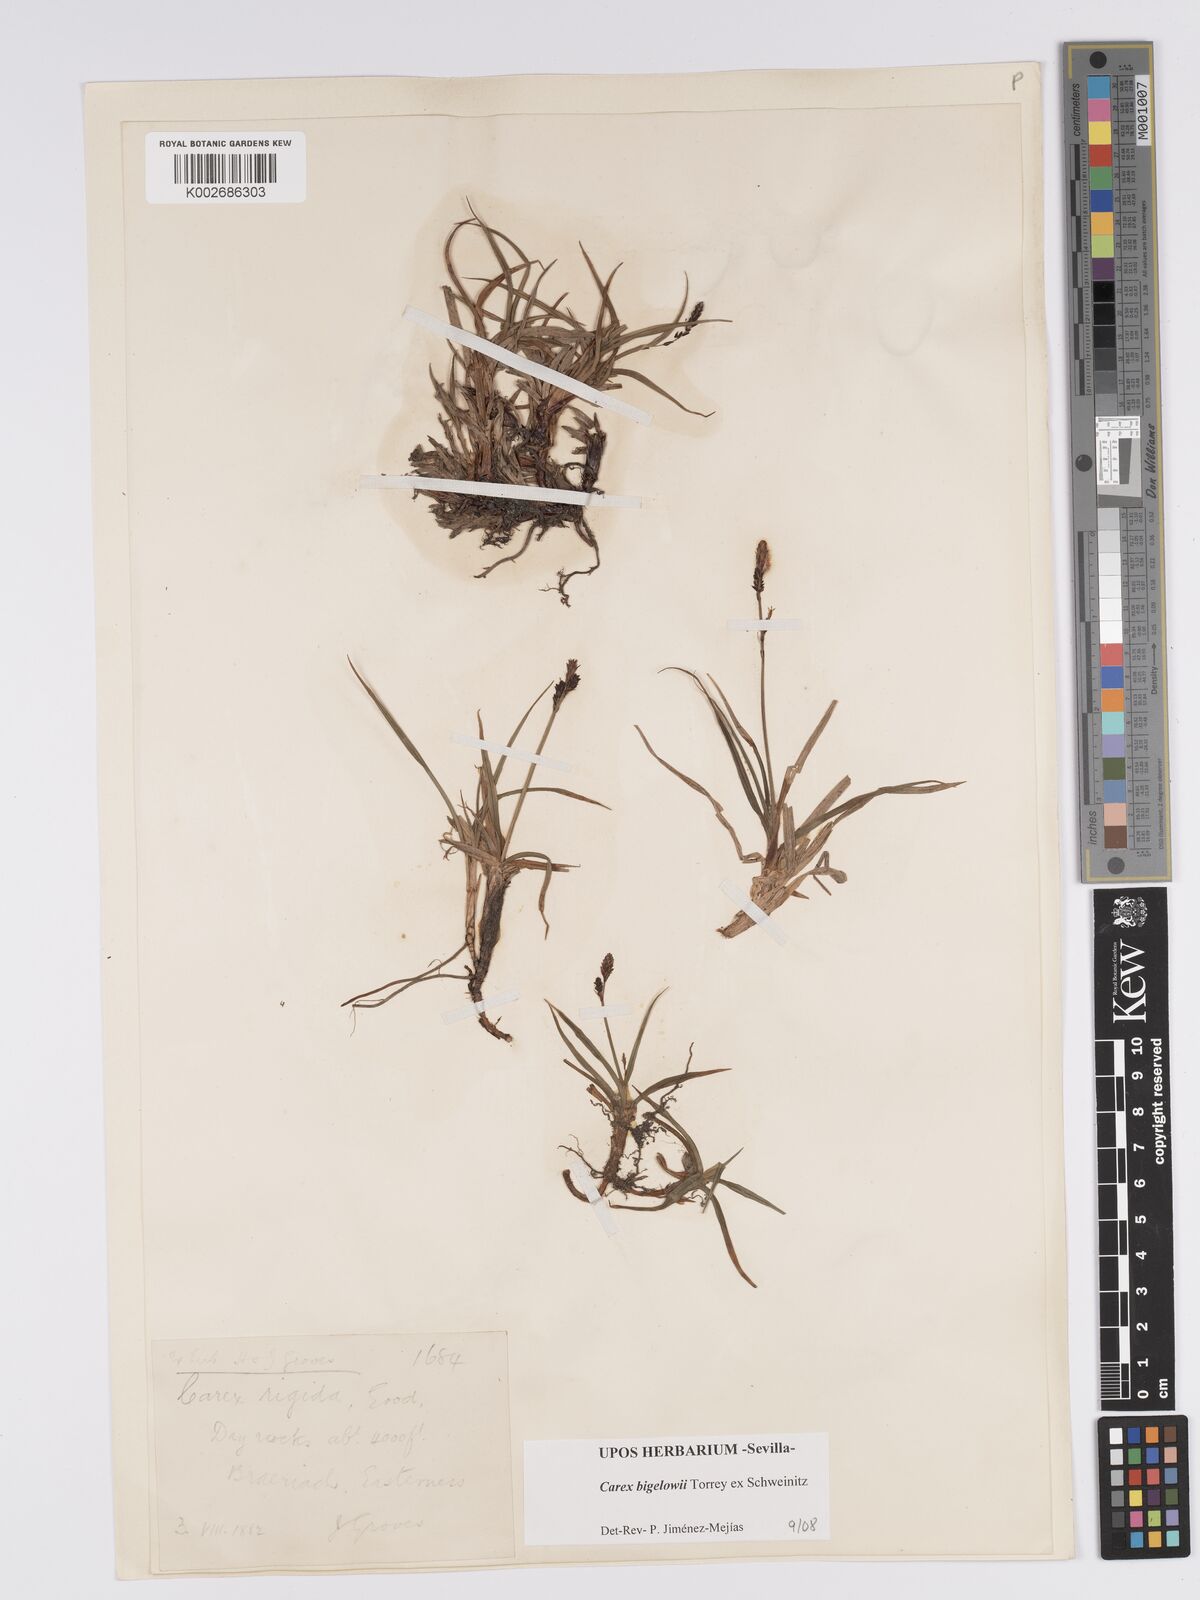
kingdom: Plantae
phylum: Tracheophyta
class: Liliopsida
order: Poales
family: Cyperaceae
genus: Carex
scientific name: Carex bigelowii
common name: Stiff sedge
